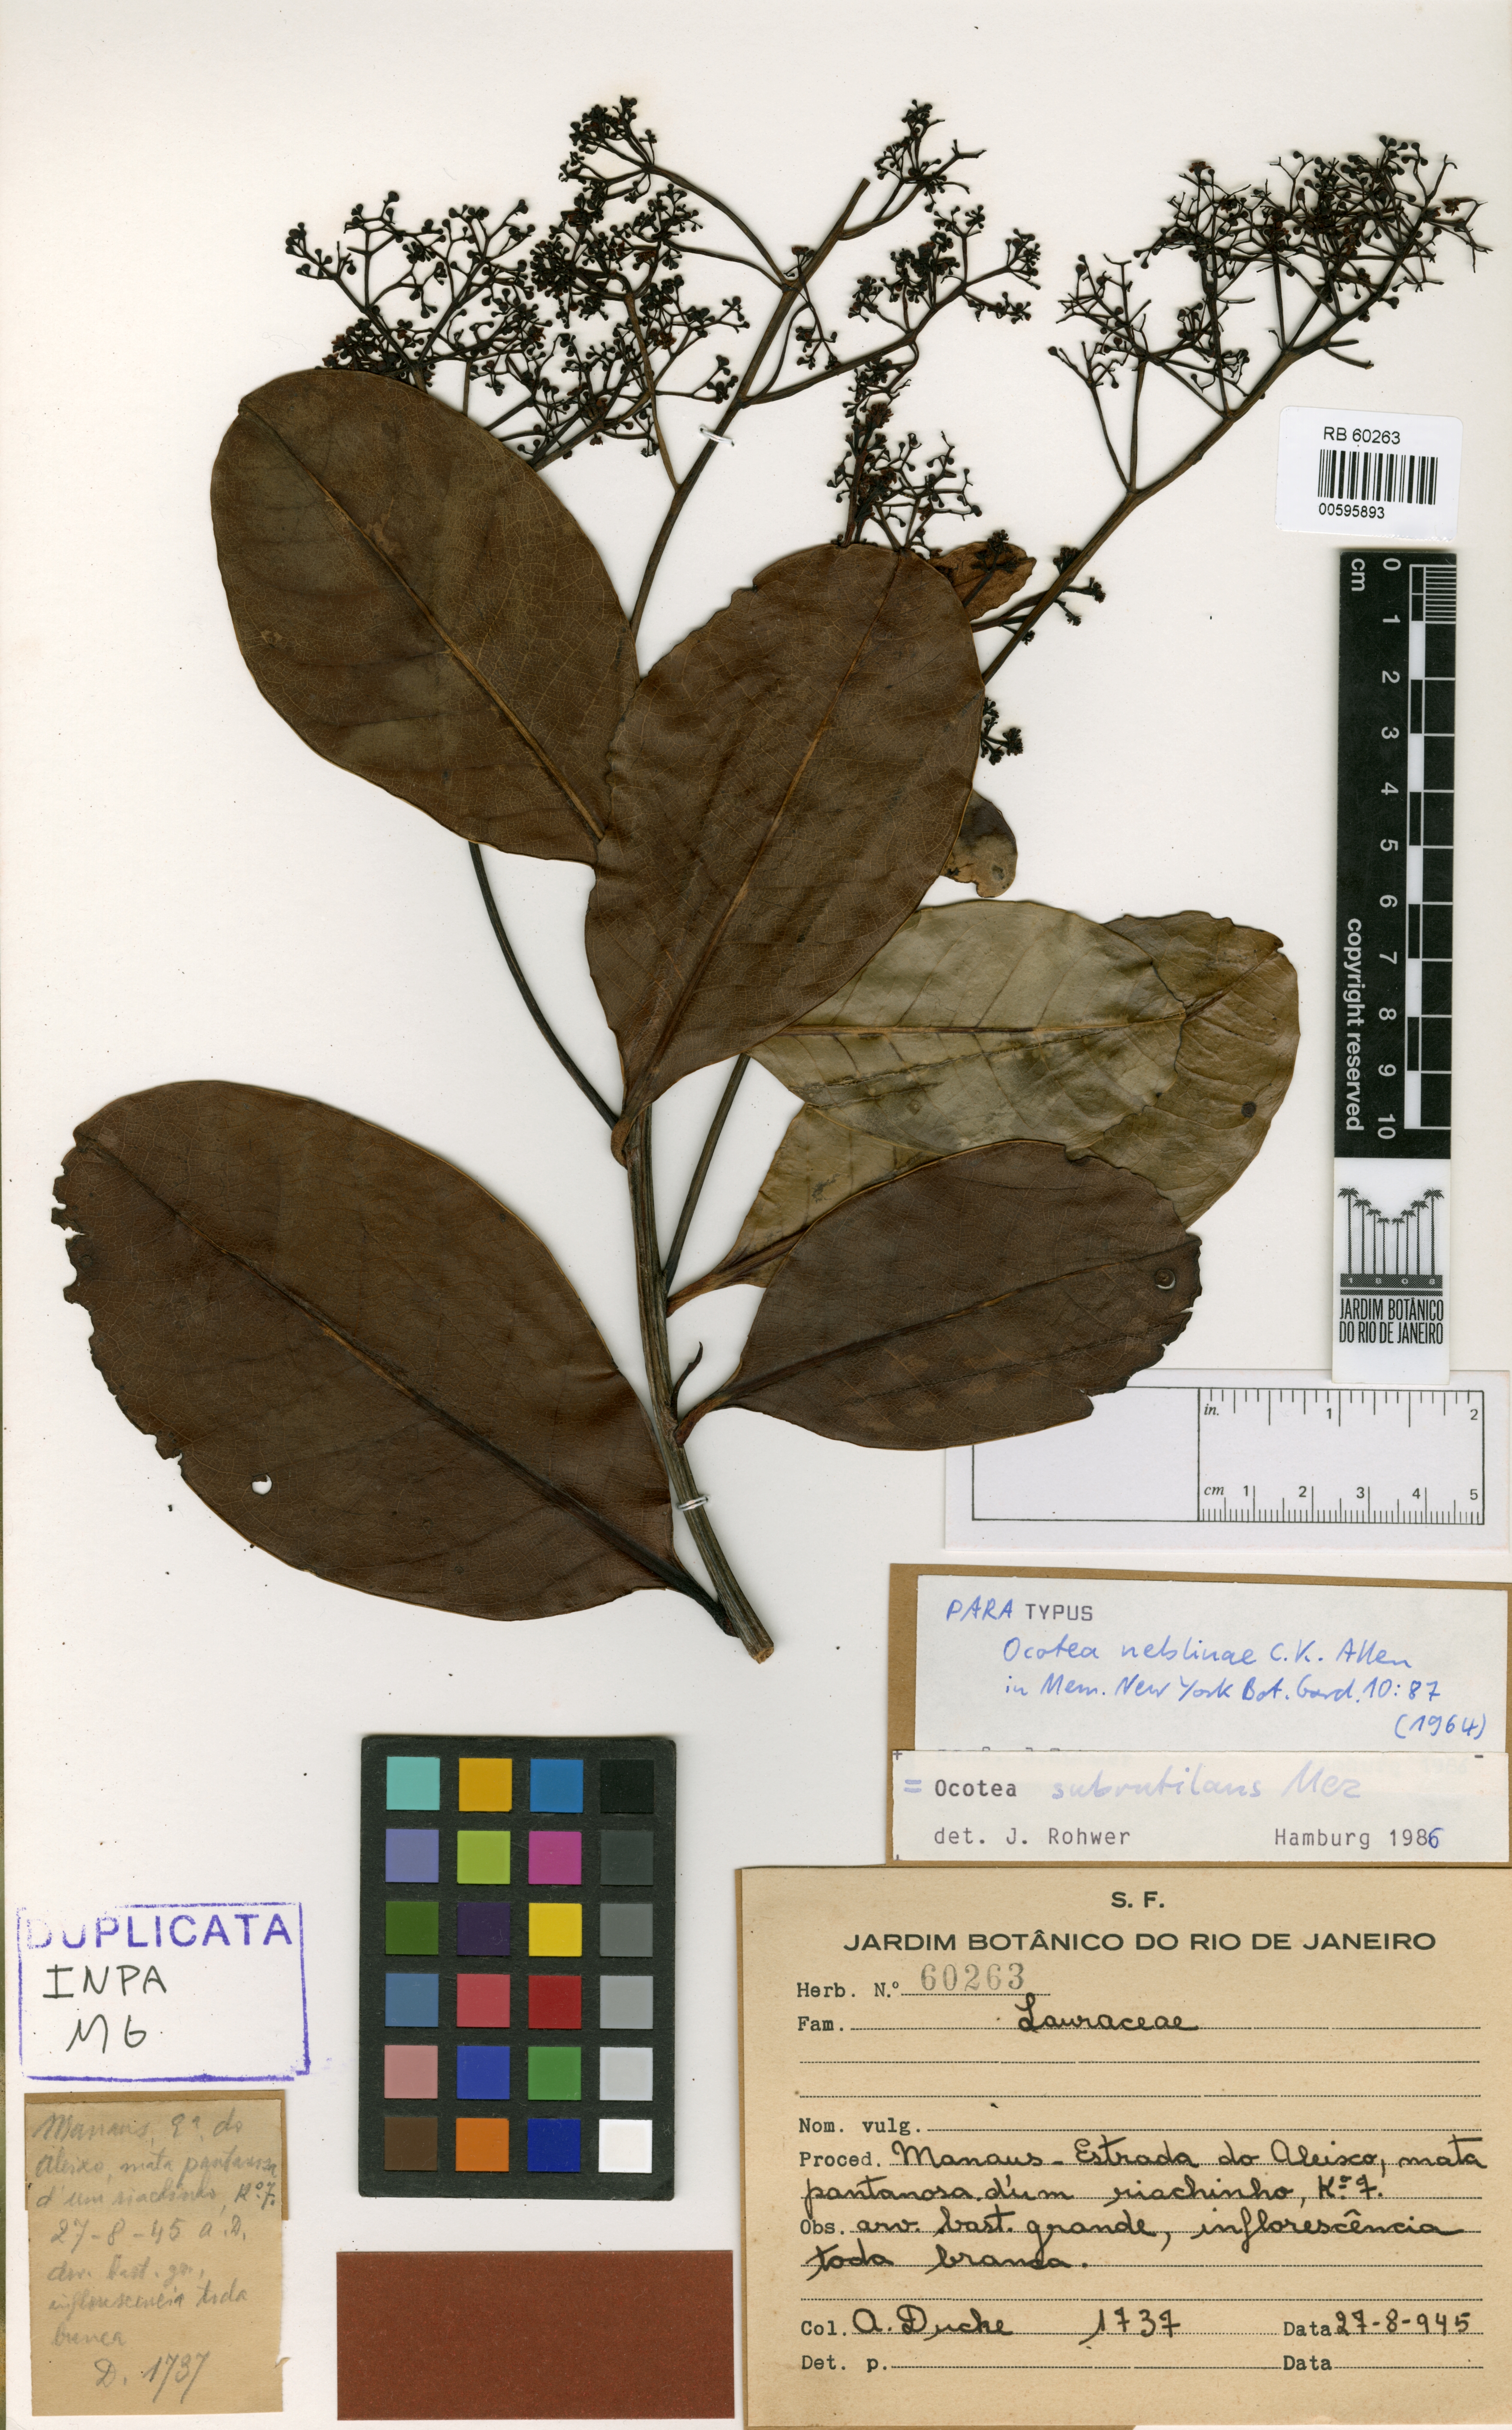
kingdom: Plantae
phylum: Tracheophyta
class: Magnoliopsida
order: Laurales
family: Lauraceae
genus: Ocotea
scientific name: Ocotea neblinae
